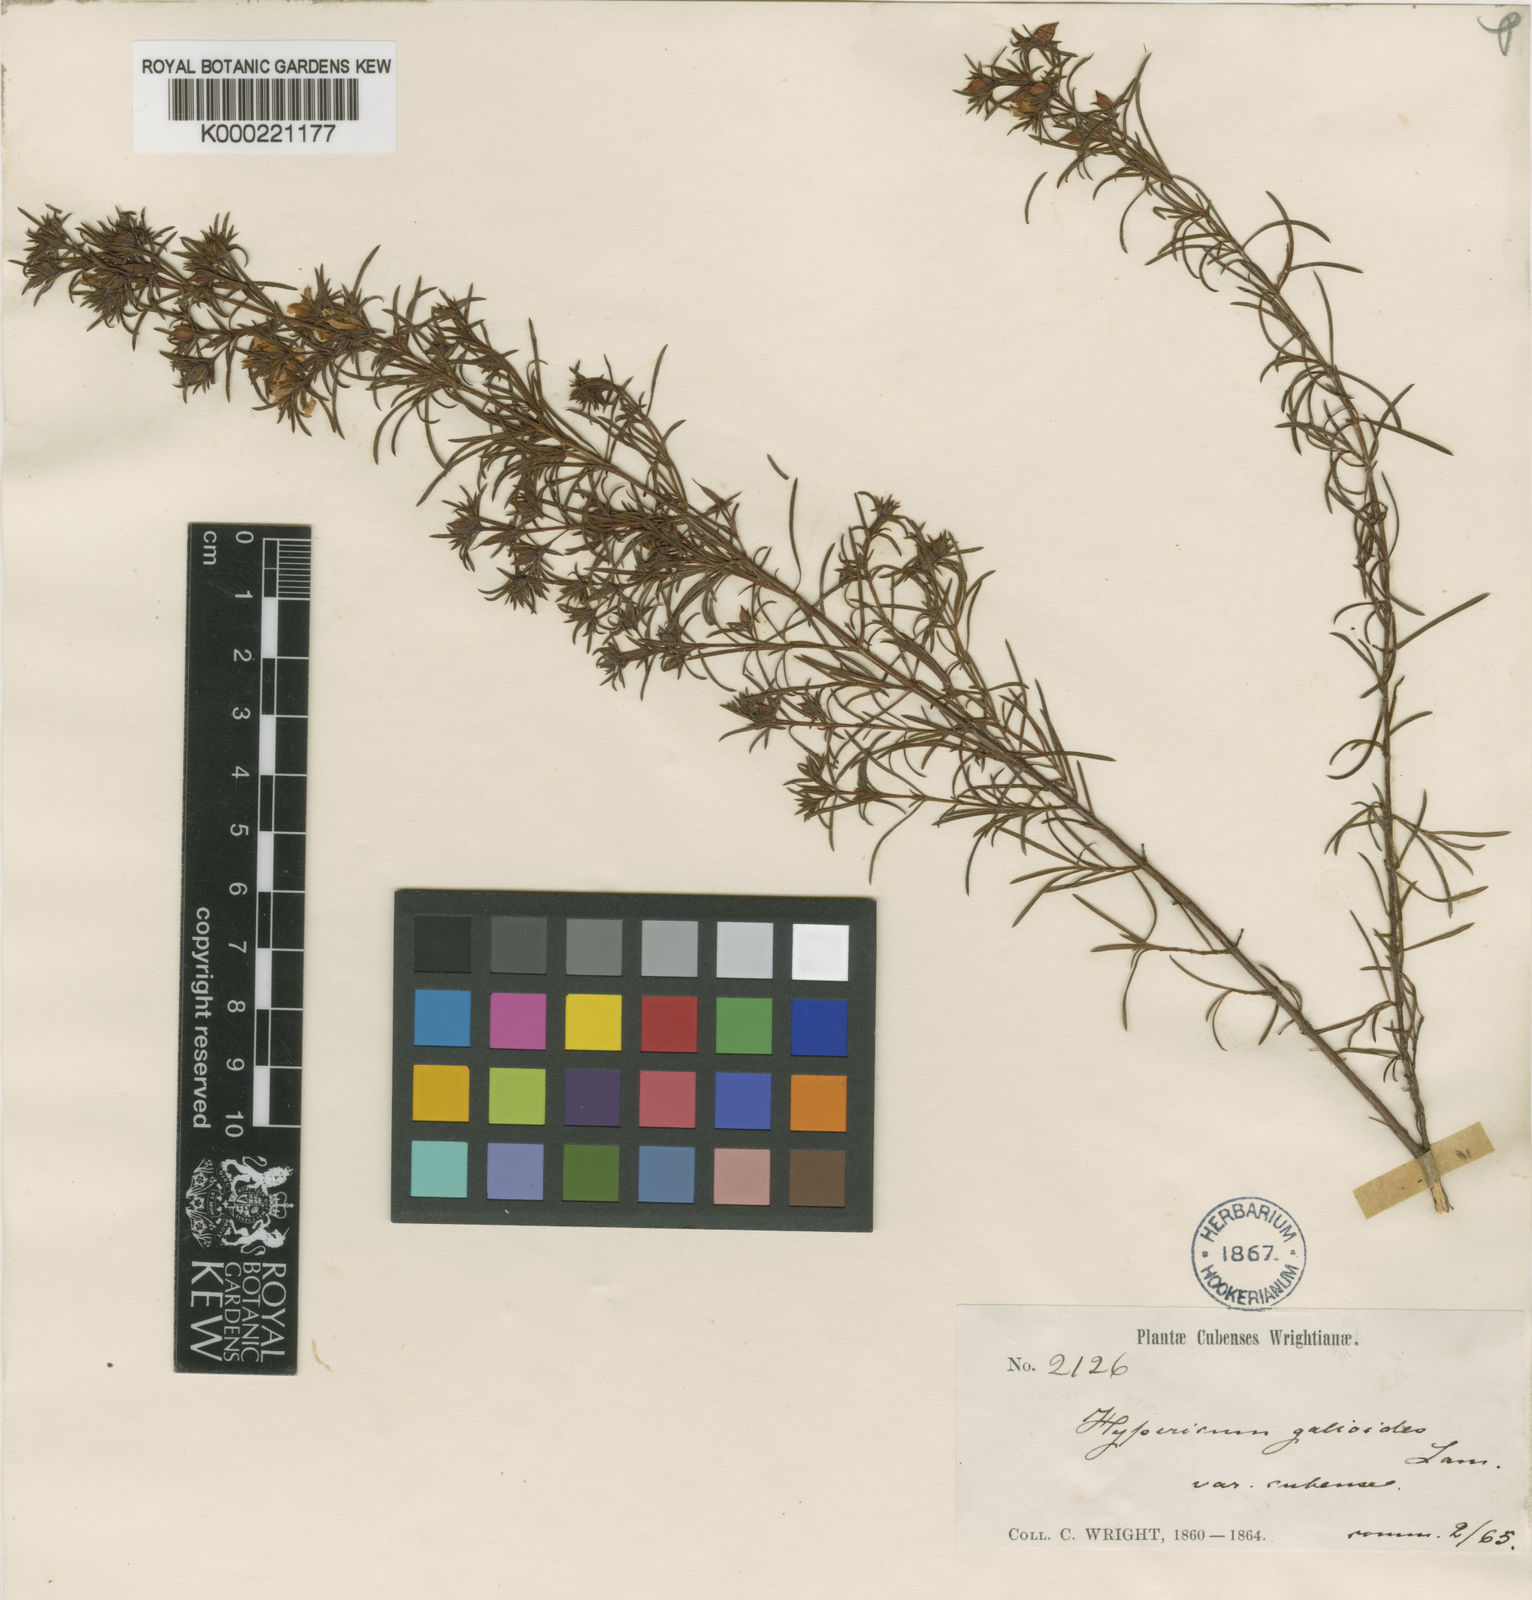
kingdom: Plantae
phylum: Tracheophyta
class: Magnoliopsida
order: Malpighiales
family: Hypericaceae
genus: Hypericum
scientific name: Hypericum nitidum
